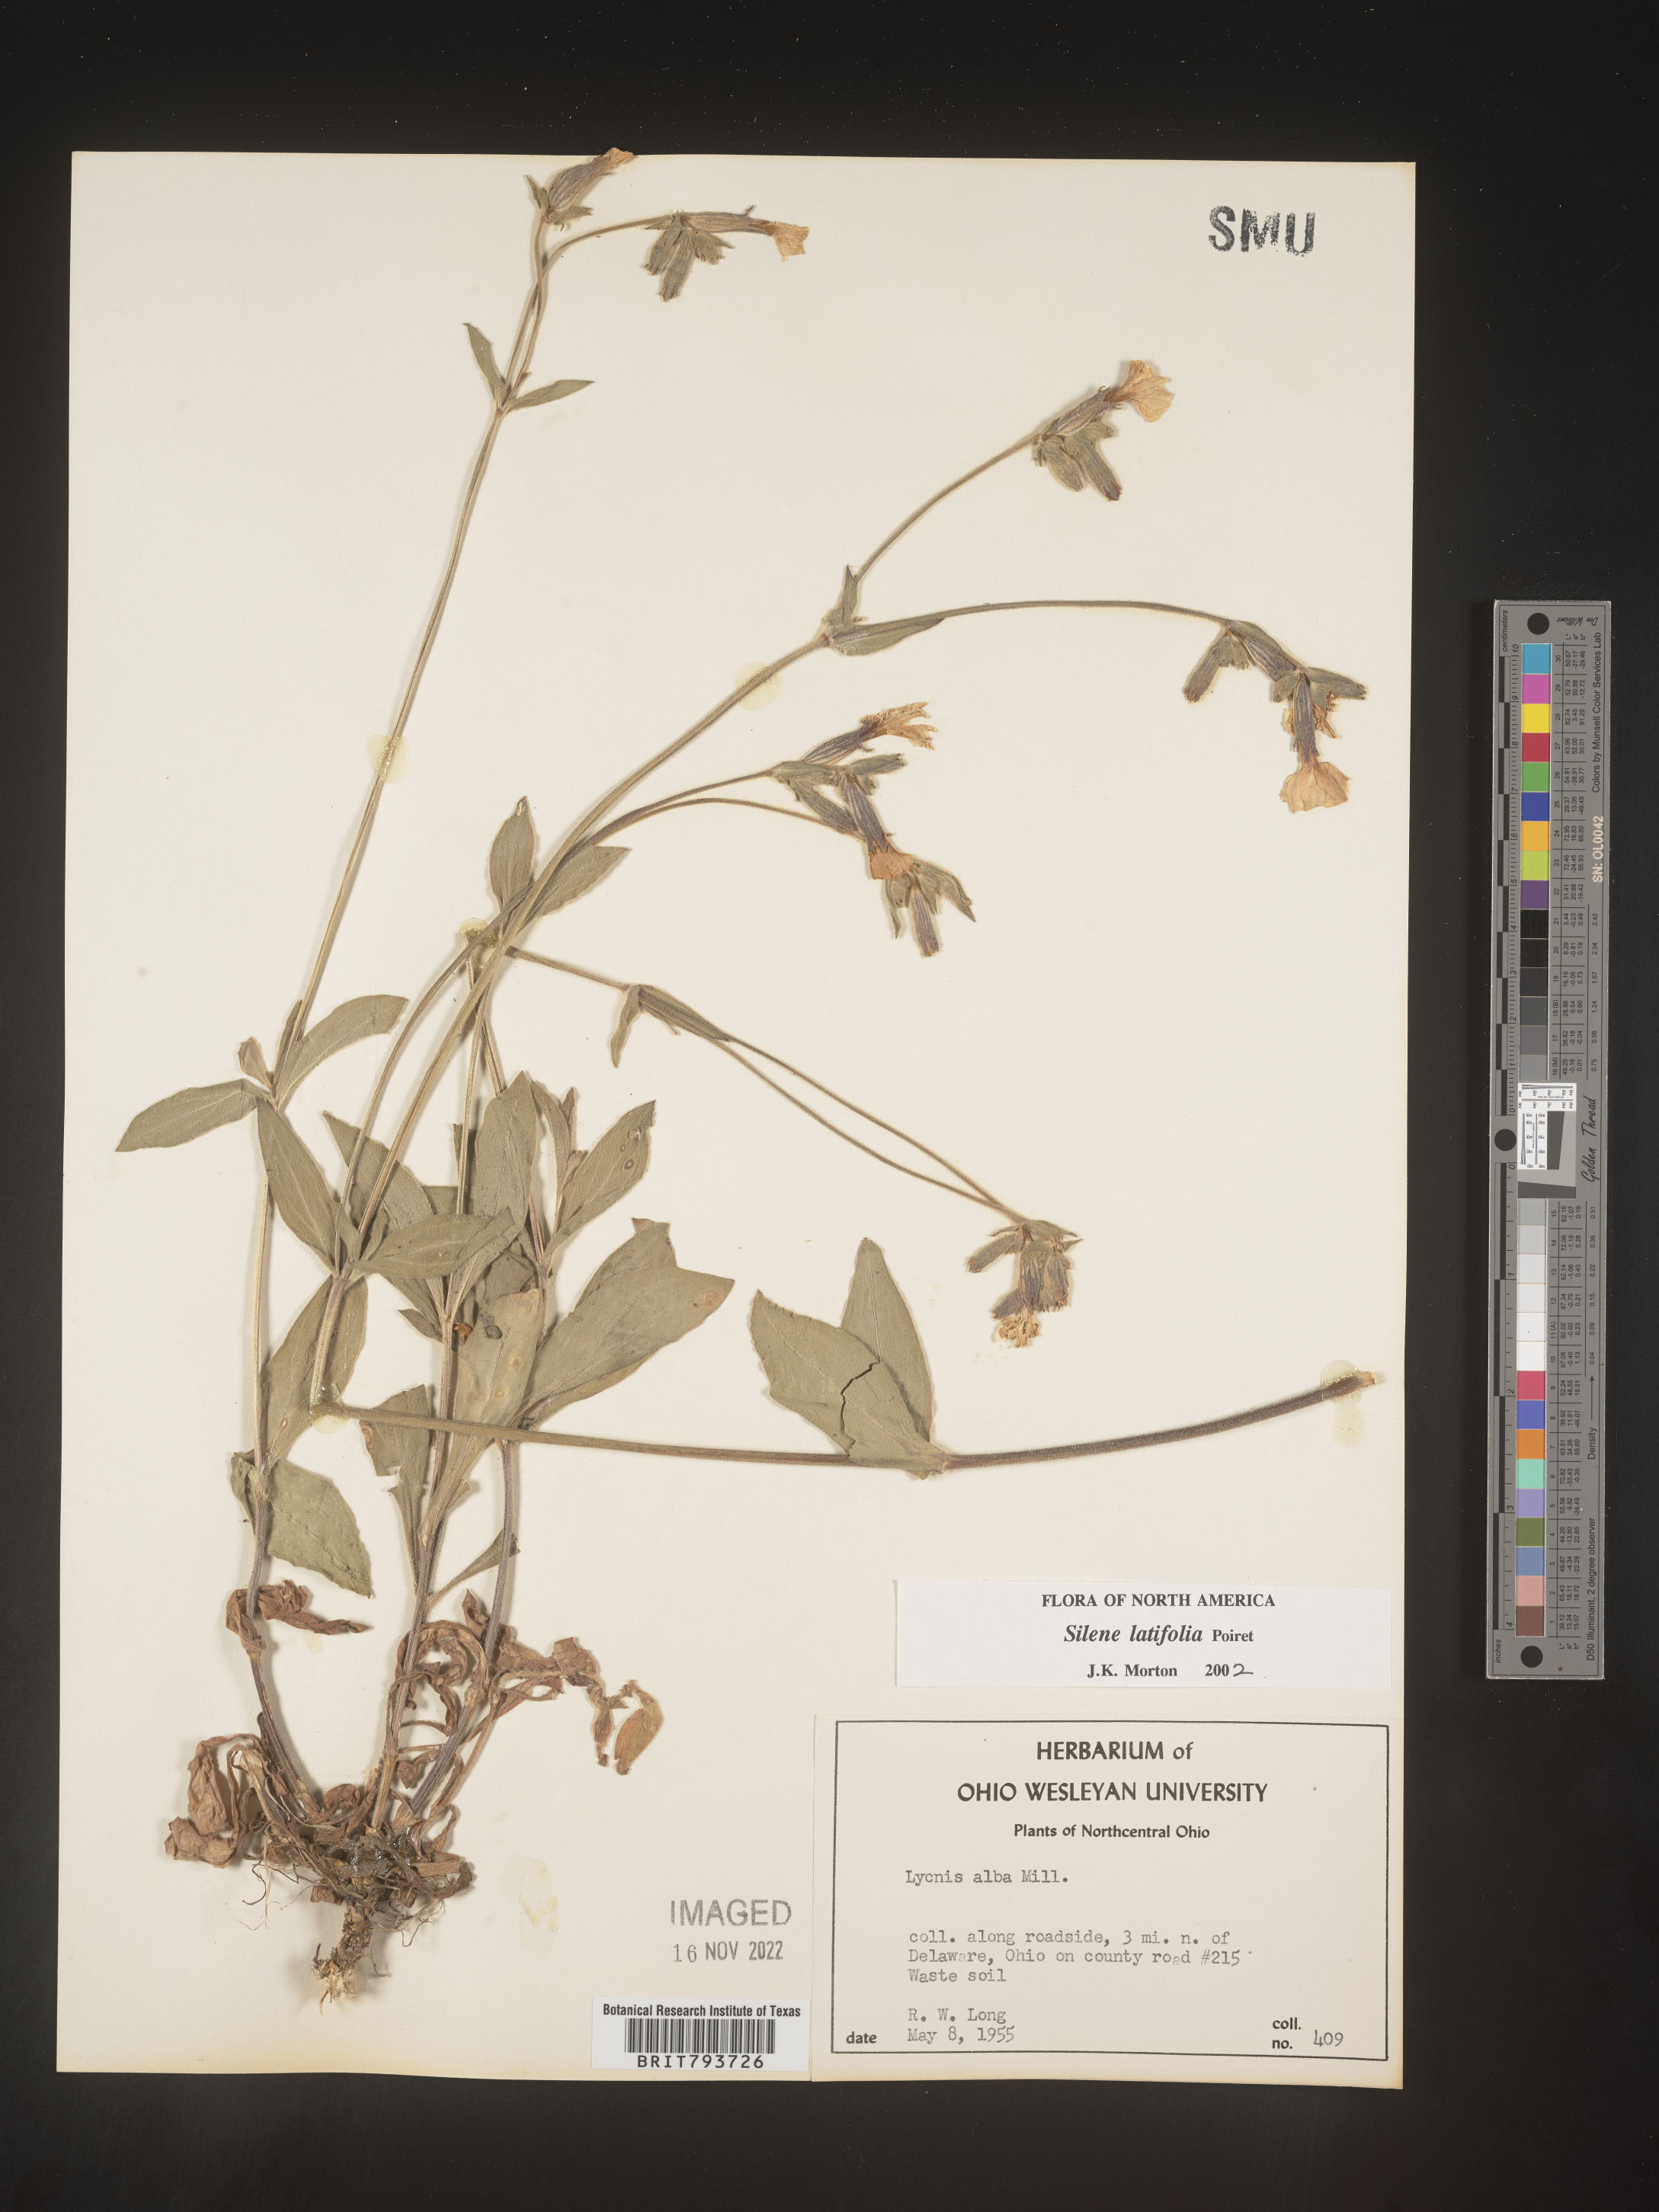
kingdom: Plantae
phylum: Tracheophyta
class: Magnoliopsida
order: Caryophyllales
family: Caryophyllaceae
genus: Silene
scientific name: Silene latifolia
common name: White campion
